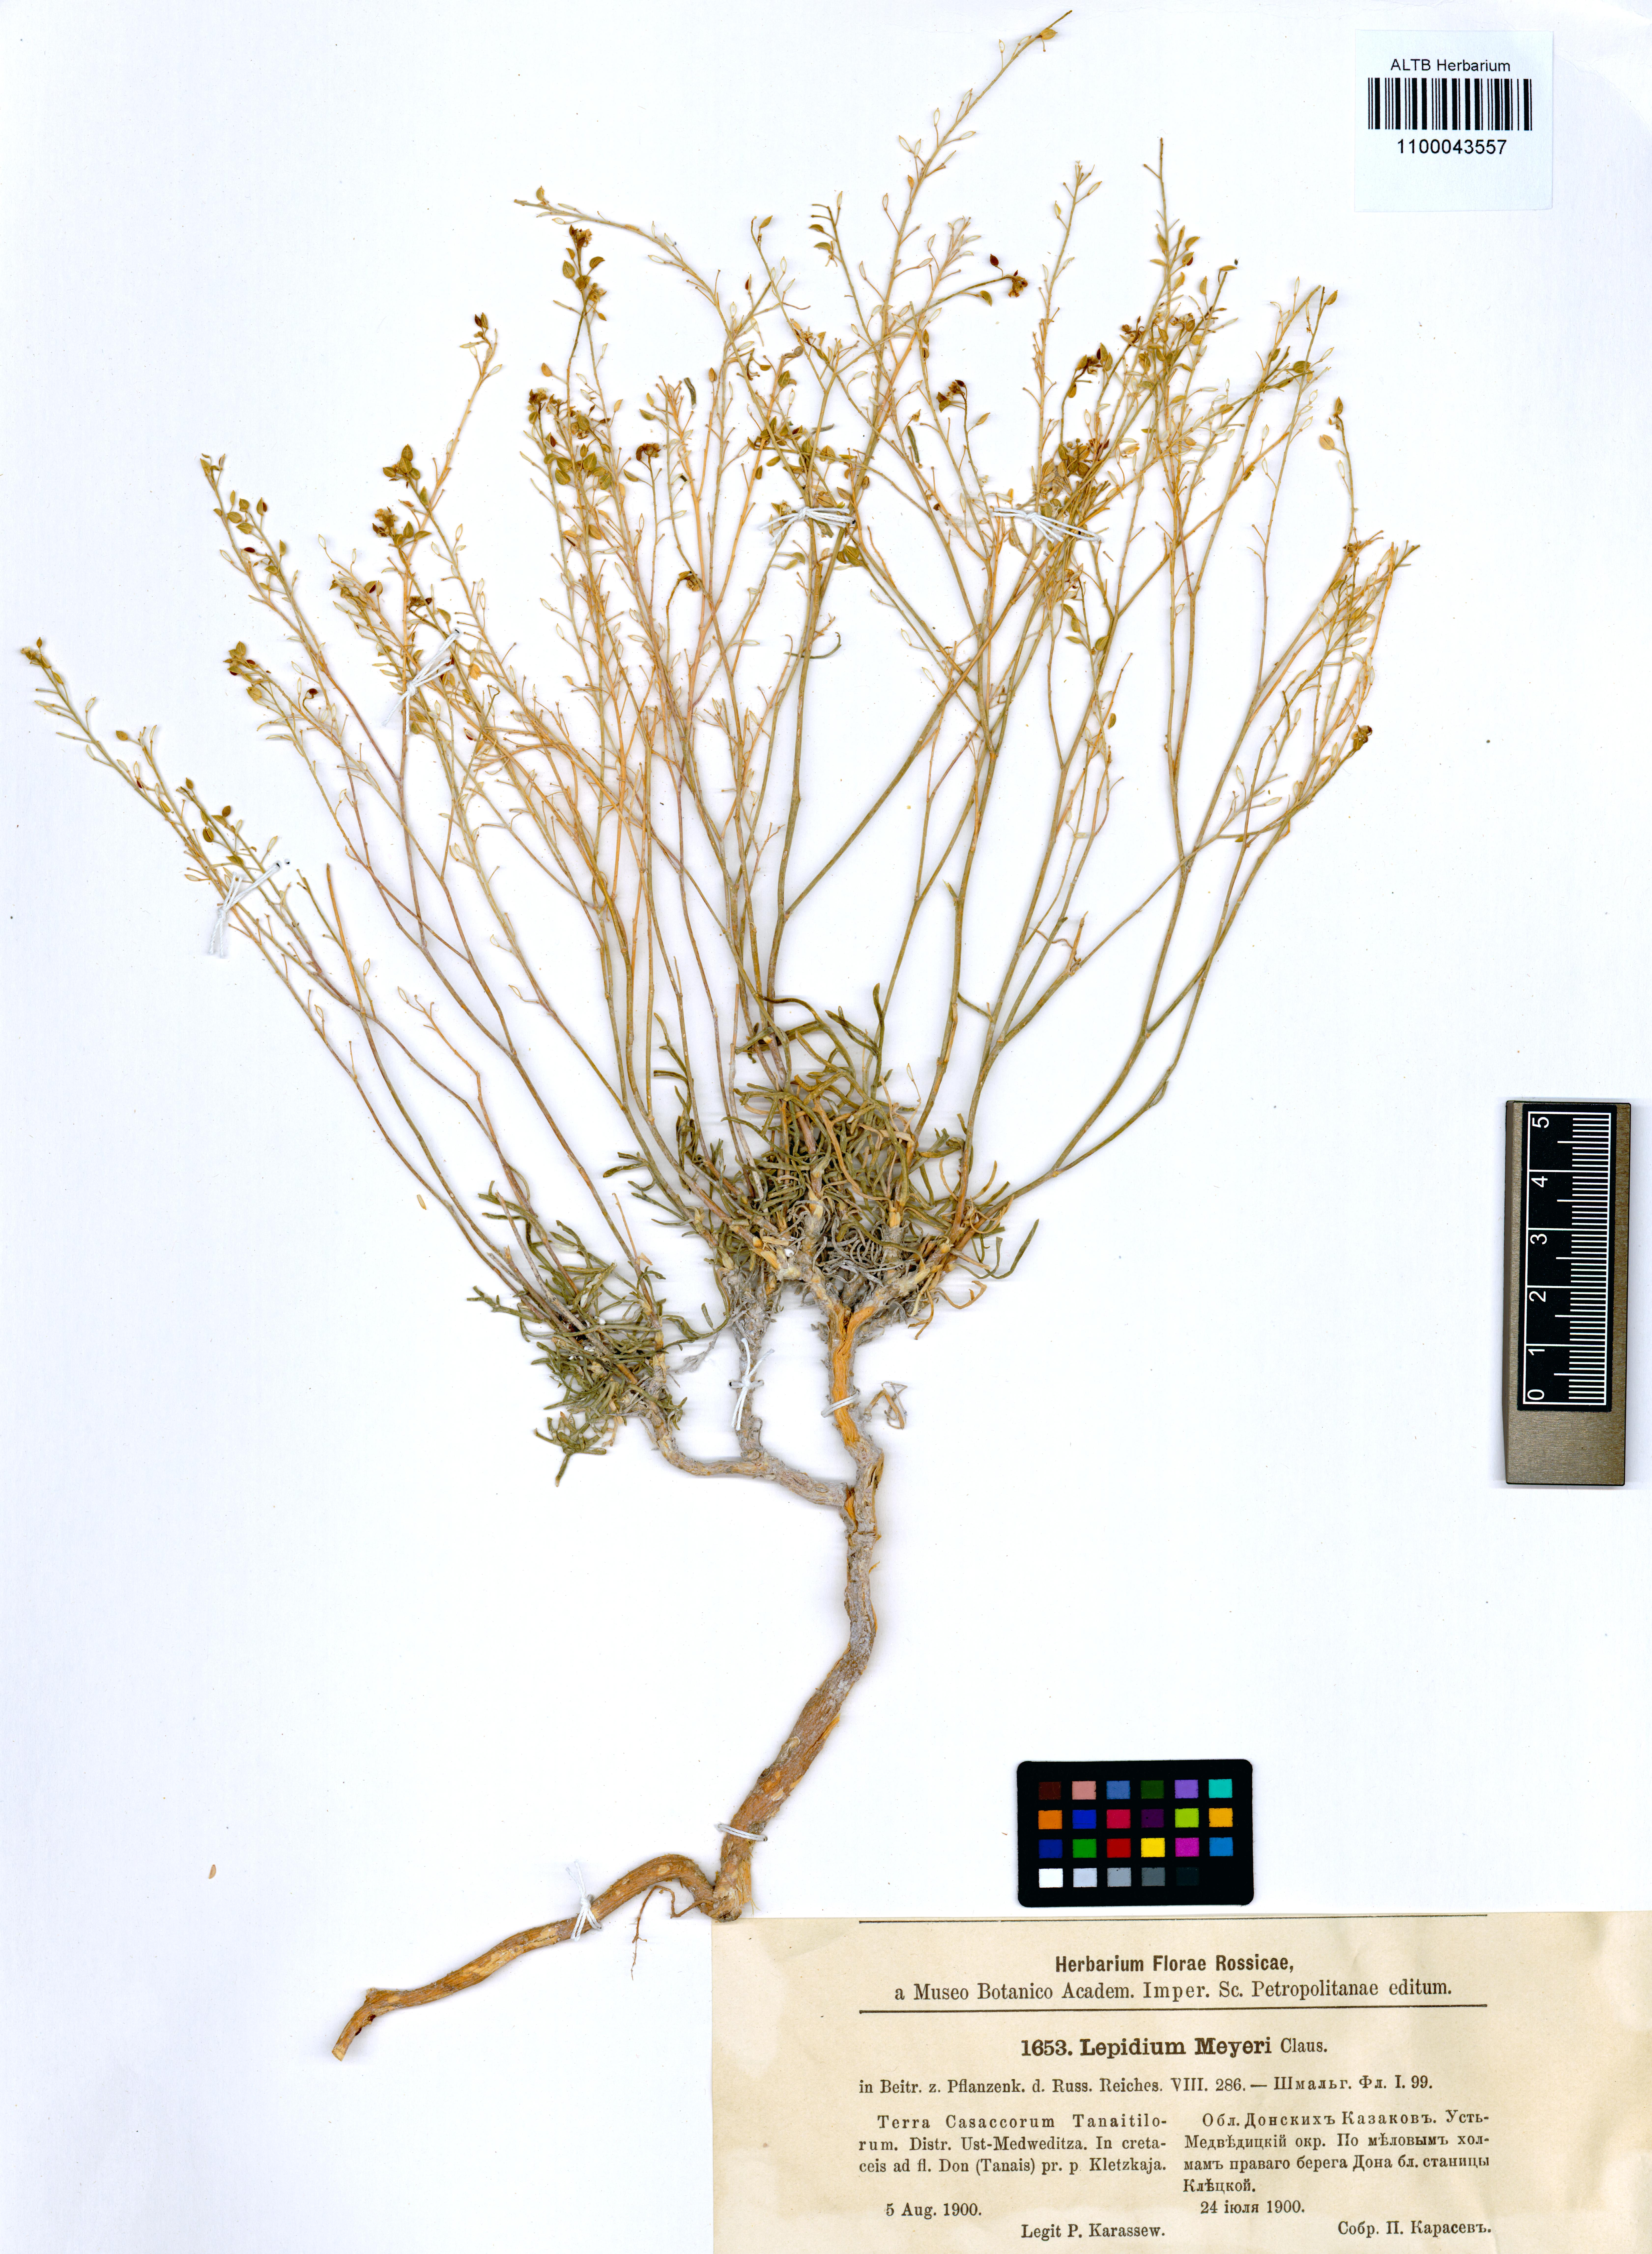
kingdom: Plantae
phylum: Tracheophyta
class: Magnoliopsida
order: Brassicales
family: Brassicaceae
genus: Lepidium
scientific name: Lepidium meyeri
